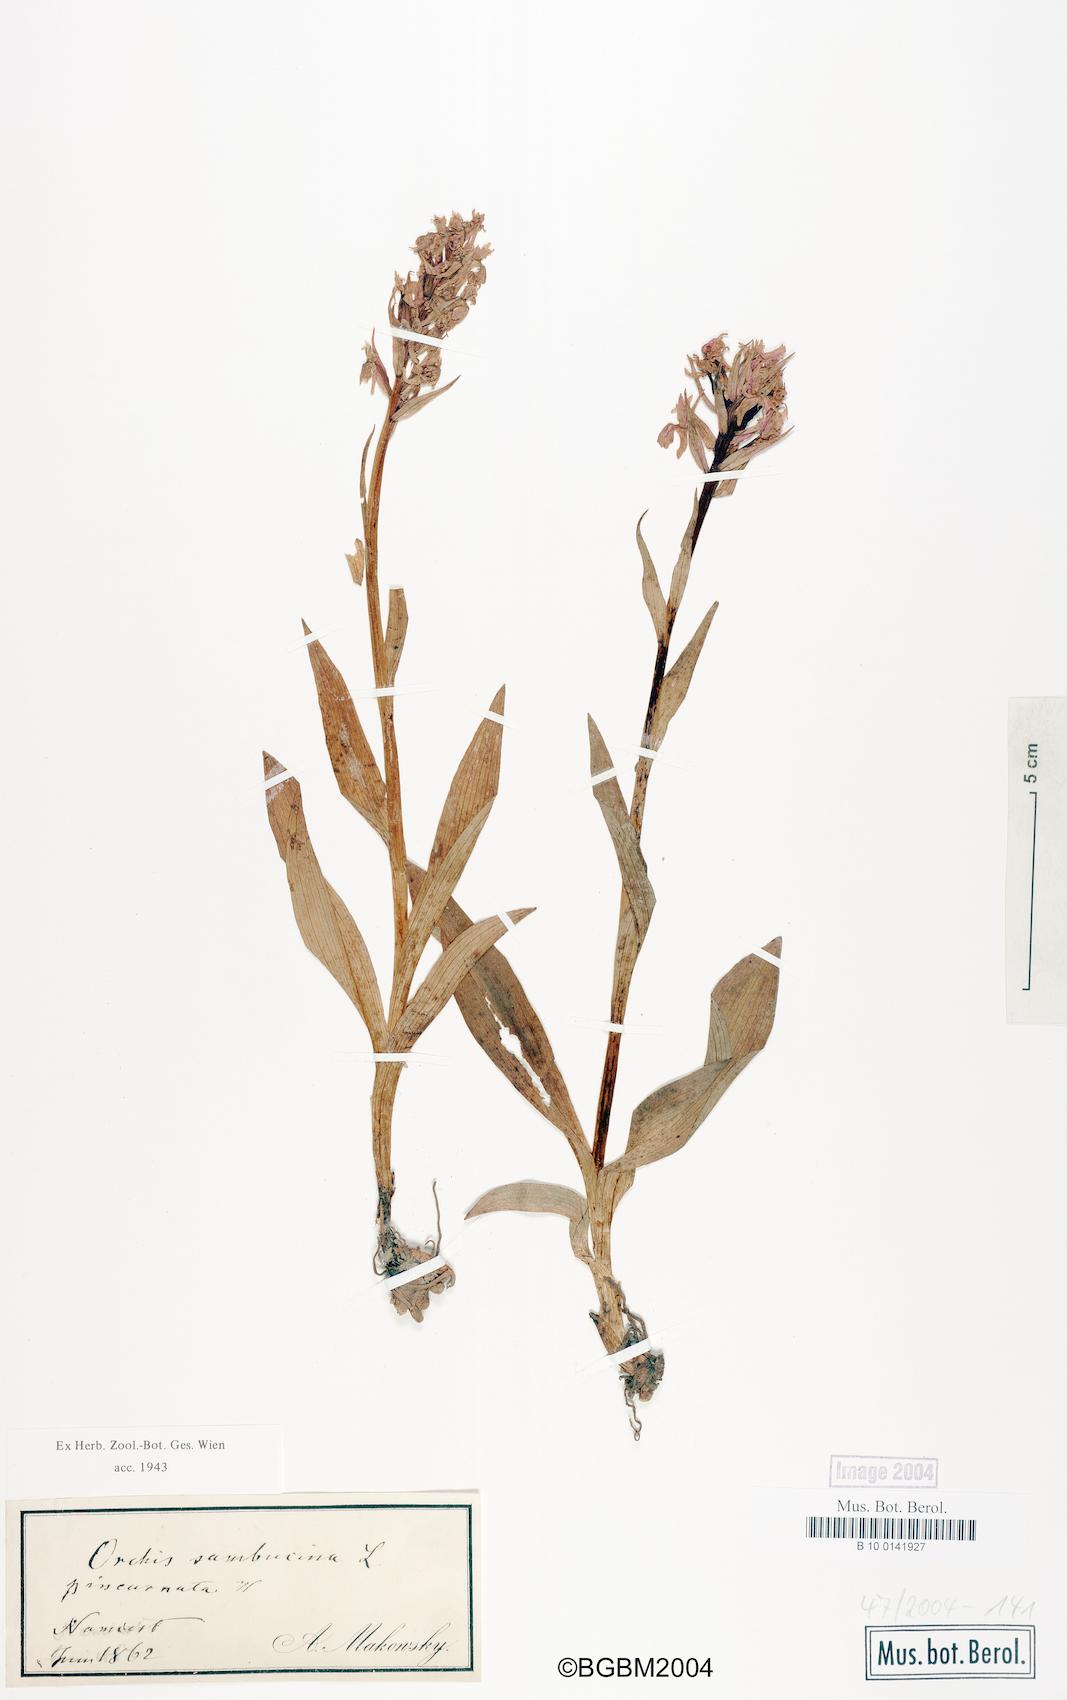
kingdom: Plantae
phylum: Tracheophyta
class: Liliopsida
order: Asparagales
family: Orchidaceae
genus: Dactylorhiza
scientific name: Dactylorhiza sambucina
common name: Elder-flowered orchid
